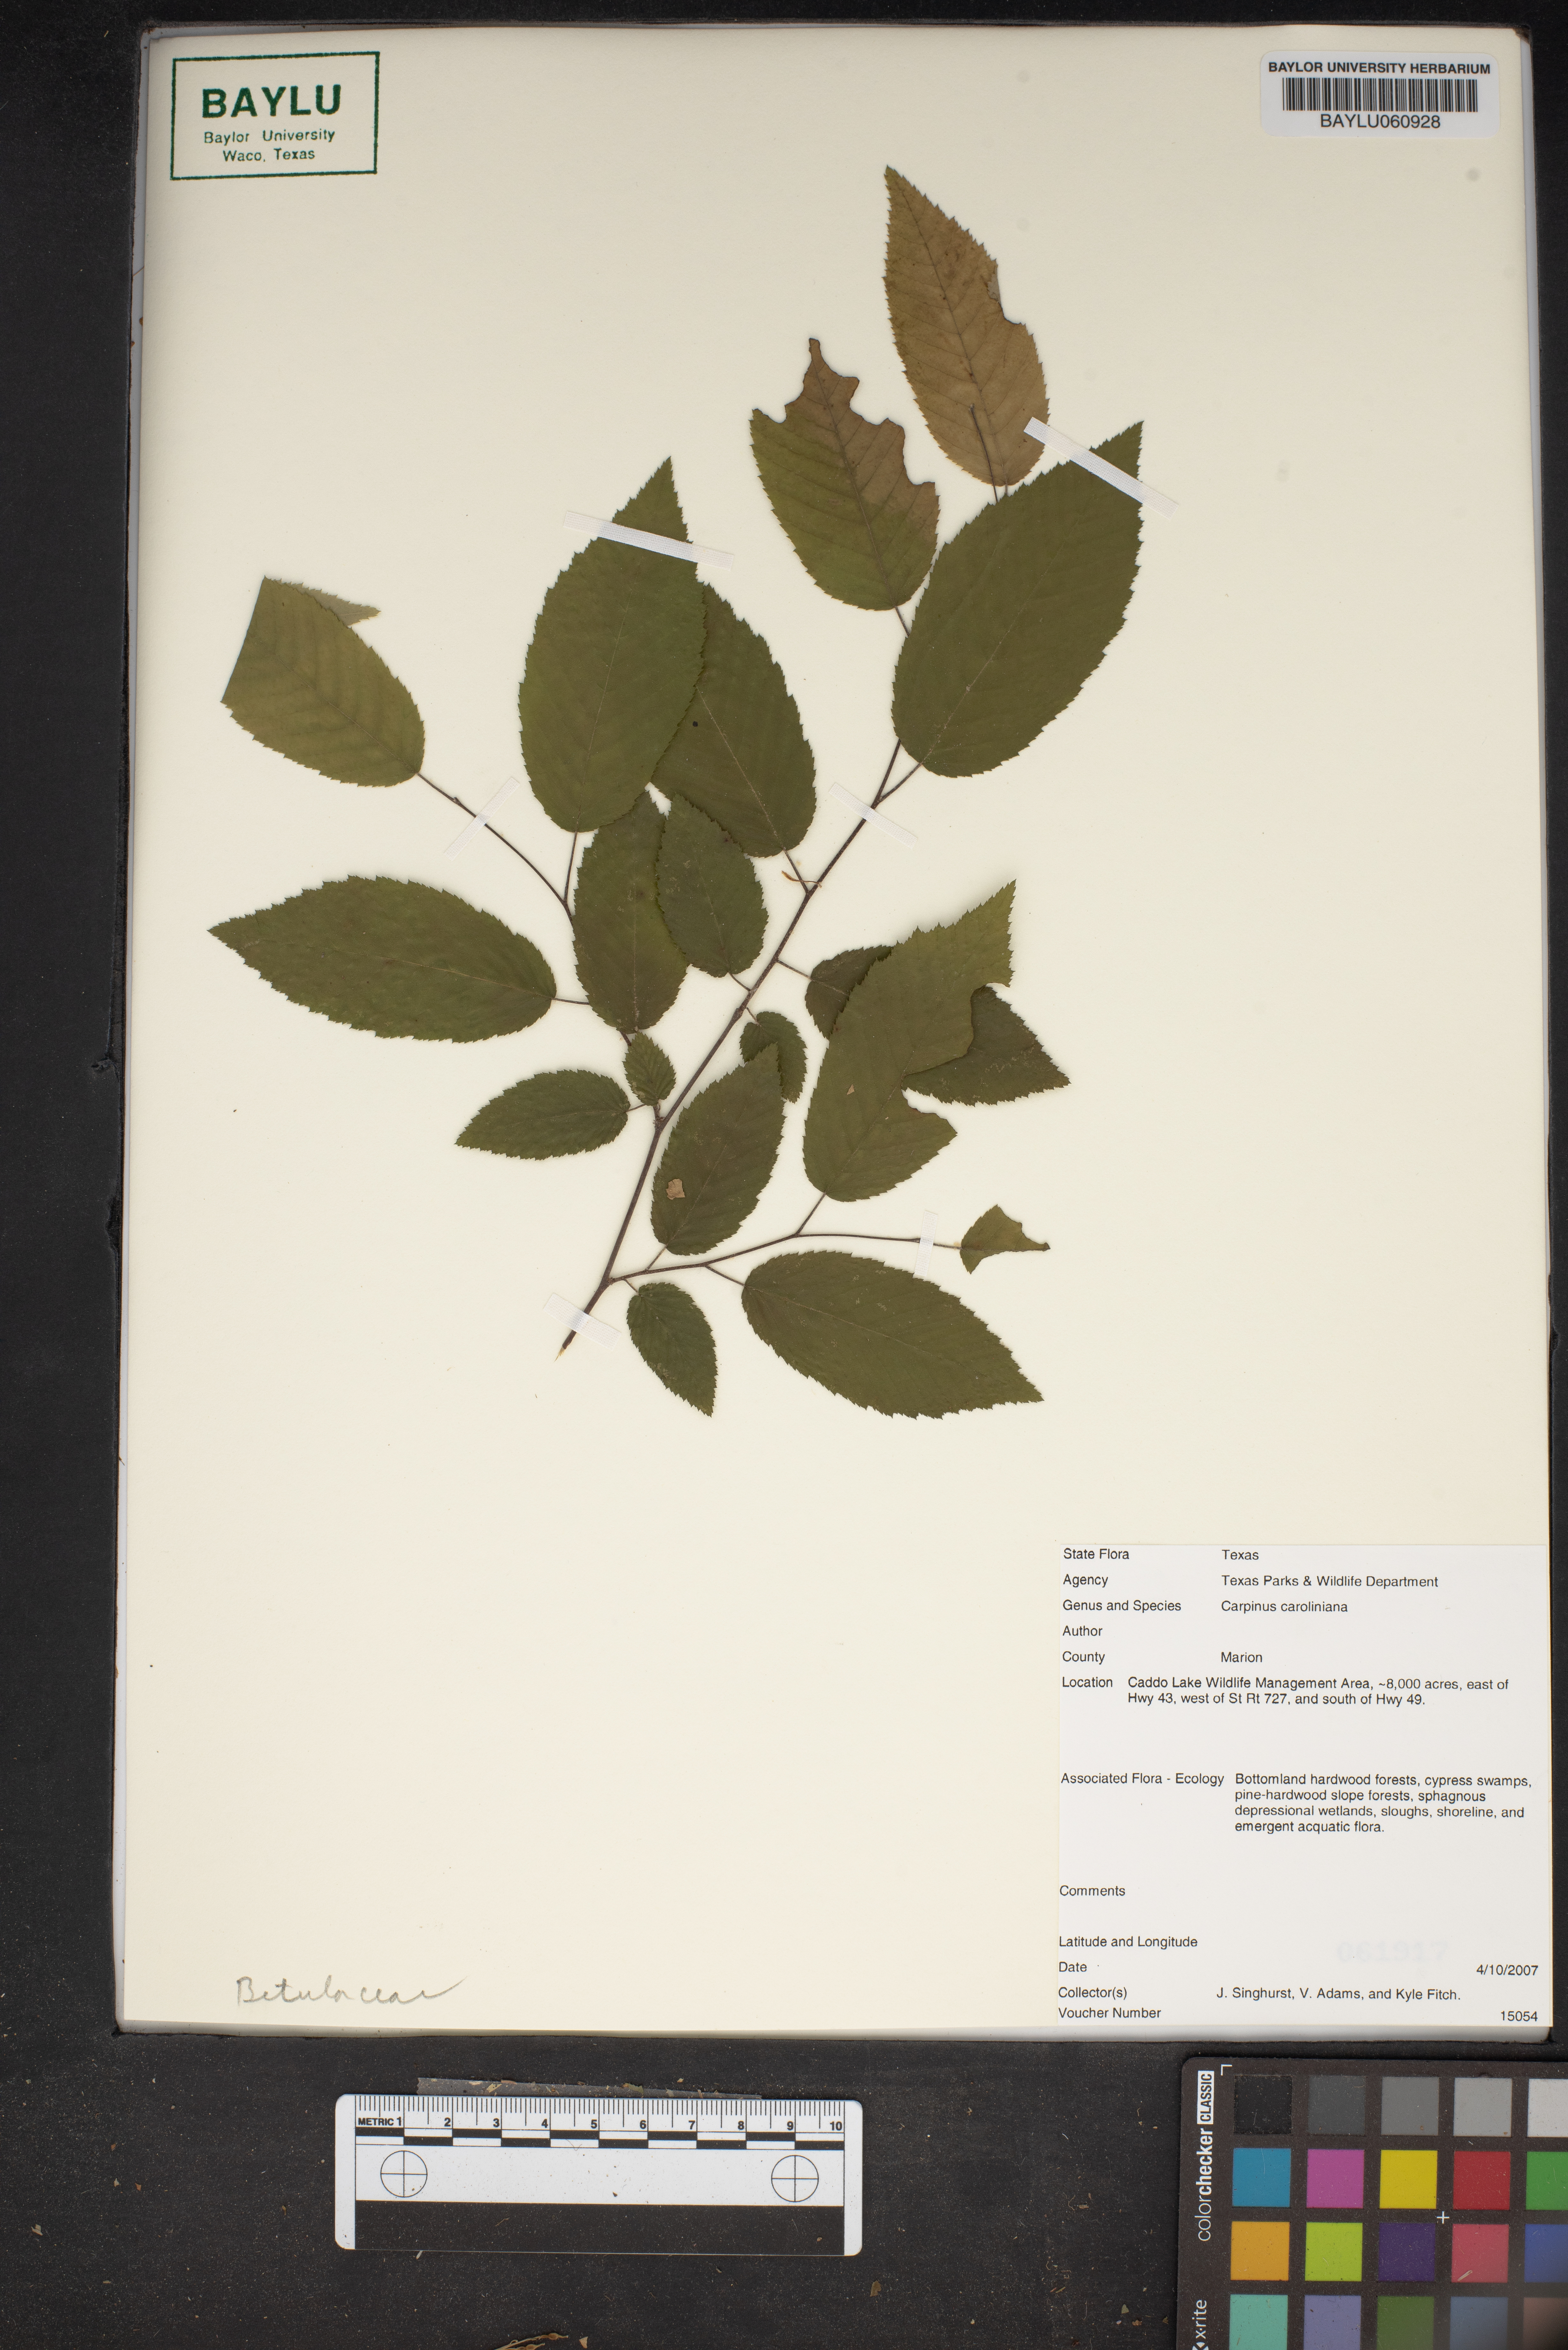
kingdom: Plantae
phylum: Tracheophyta
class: Magnoliopsida
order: Fagales
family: Betulaceae
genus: Carpinus
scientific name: Carpinus caroliniana
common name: American hornbeam
